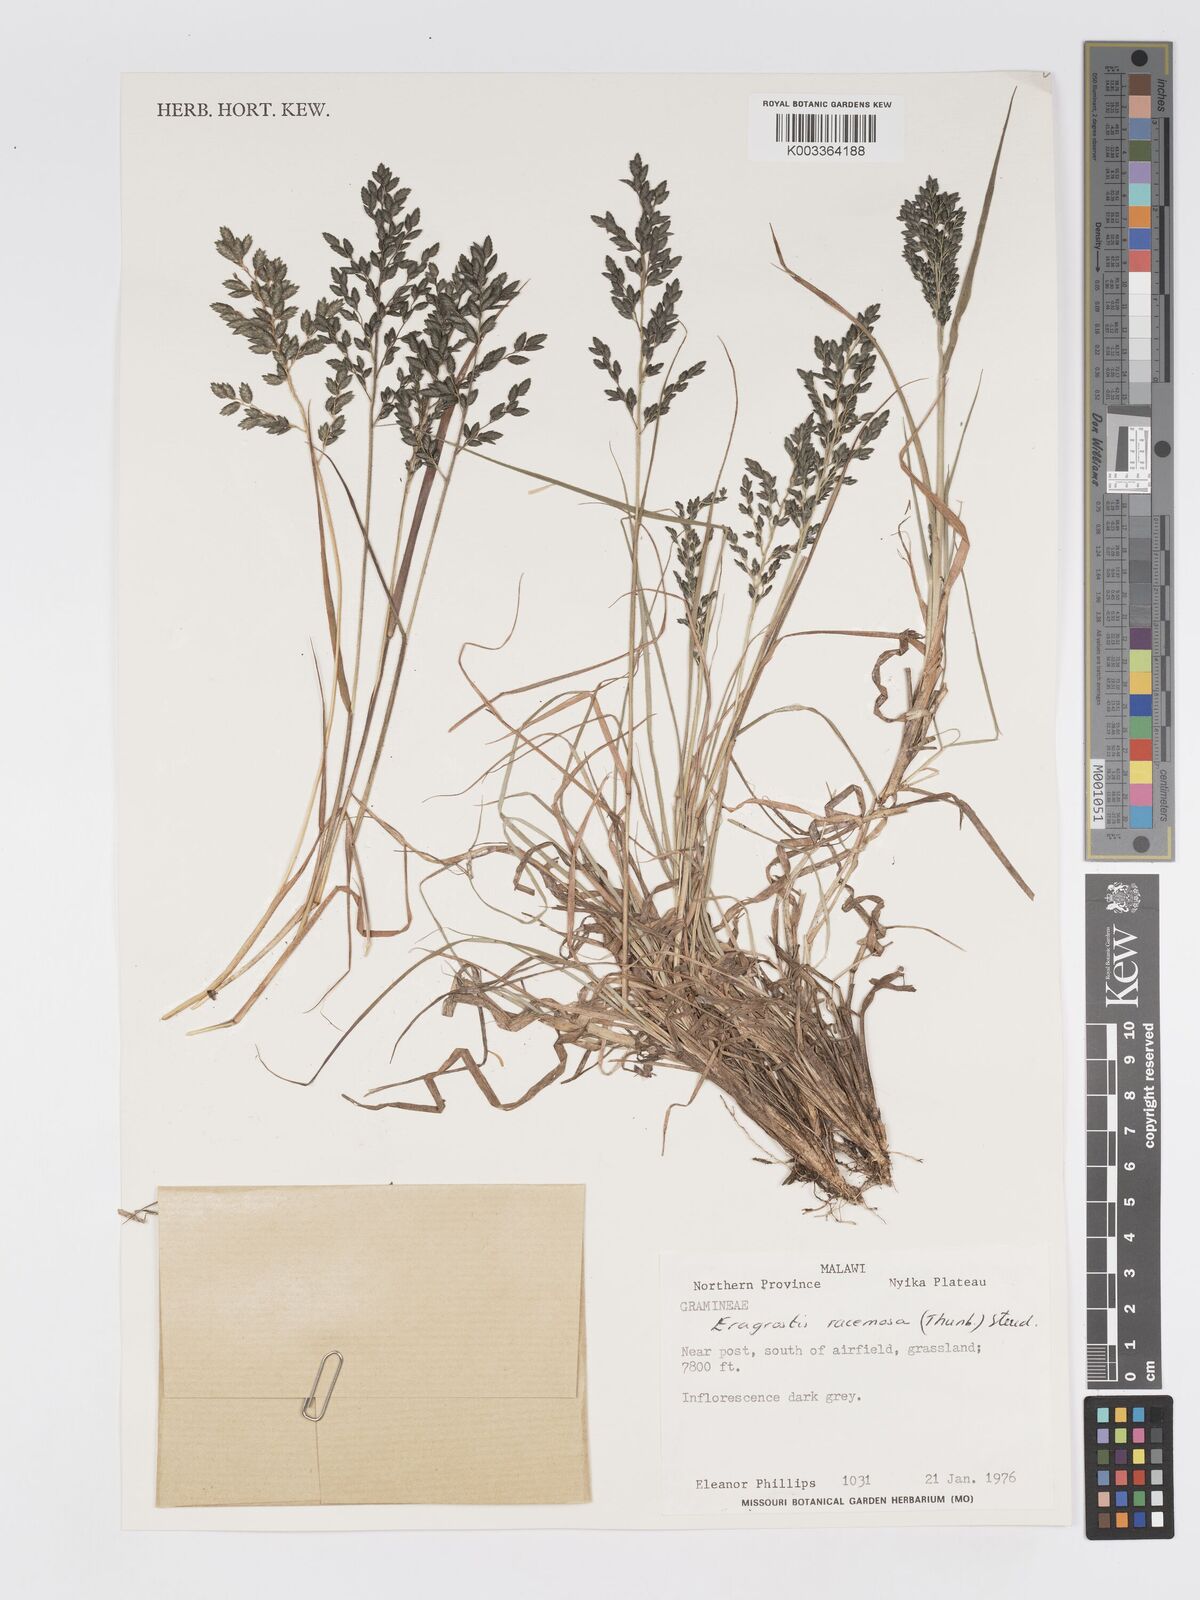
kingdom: Plantae
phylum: Tracheophyta
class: Liliopsida
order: Poales
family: Poaceae
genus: Eragrostis
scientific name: Eragrostis racemosa
